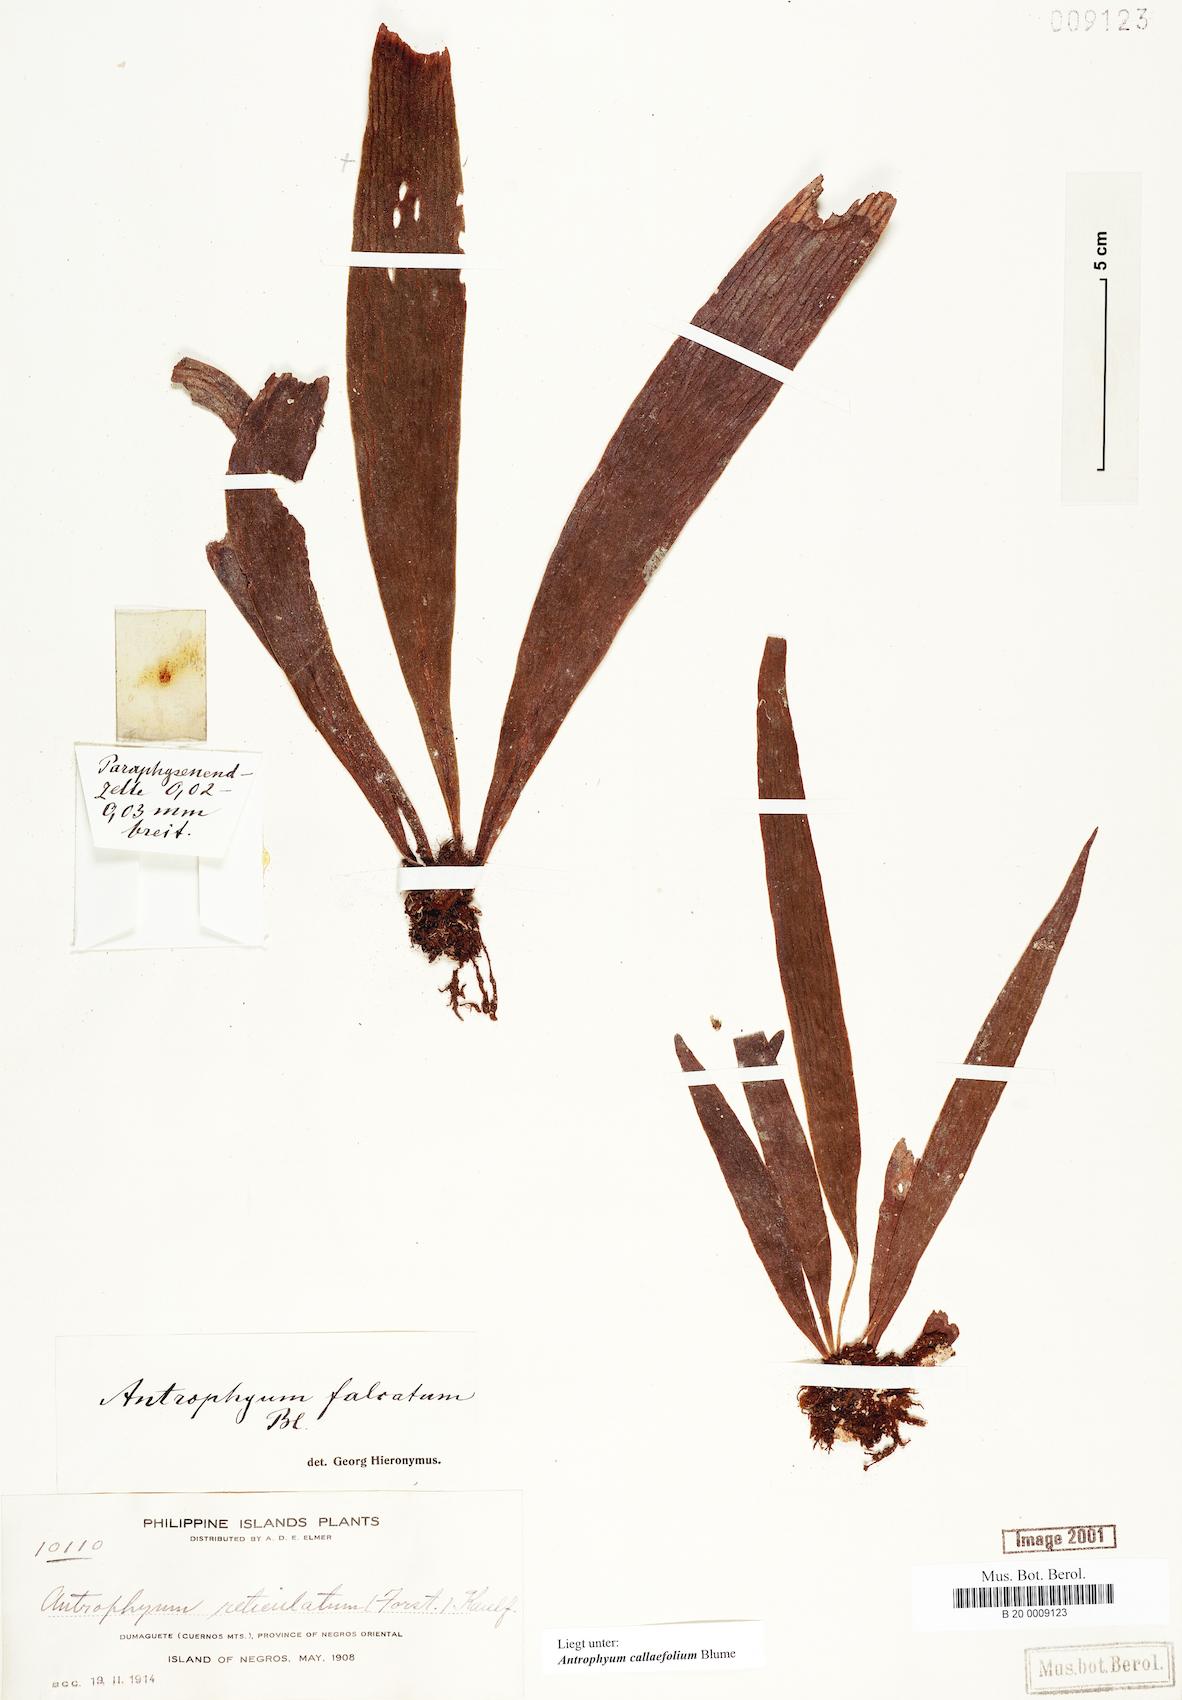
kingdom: Plantae
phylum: Tracheophyta
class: Polypodiopsida
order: Polypodiales
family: Pteridaceae
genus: Antrophyum
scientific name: Antrophyum callifolium
